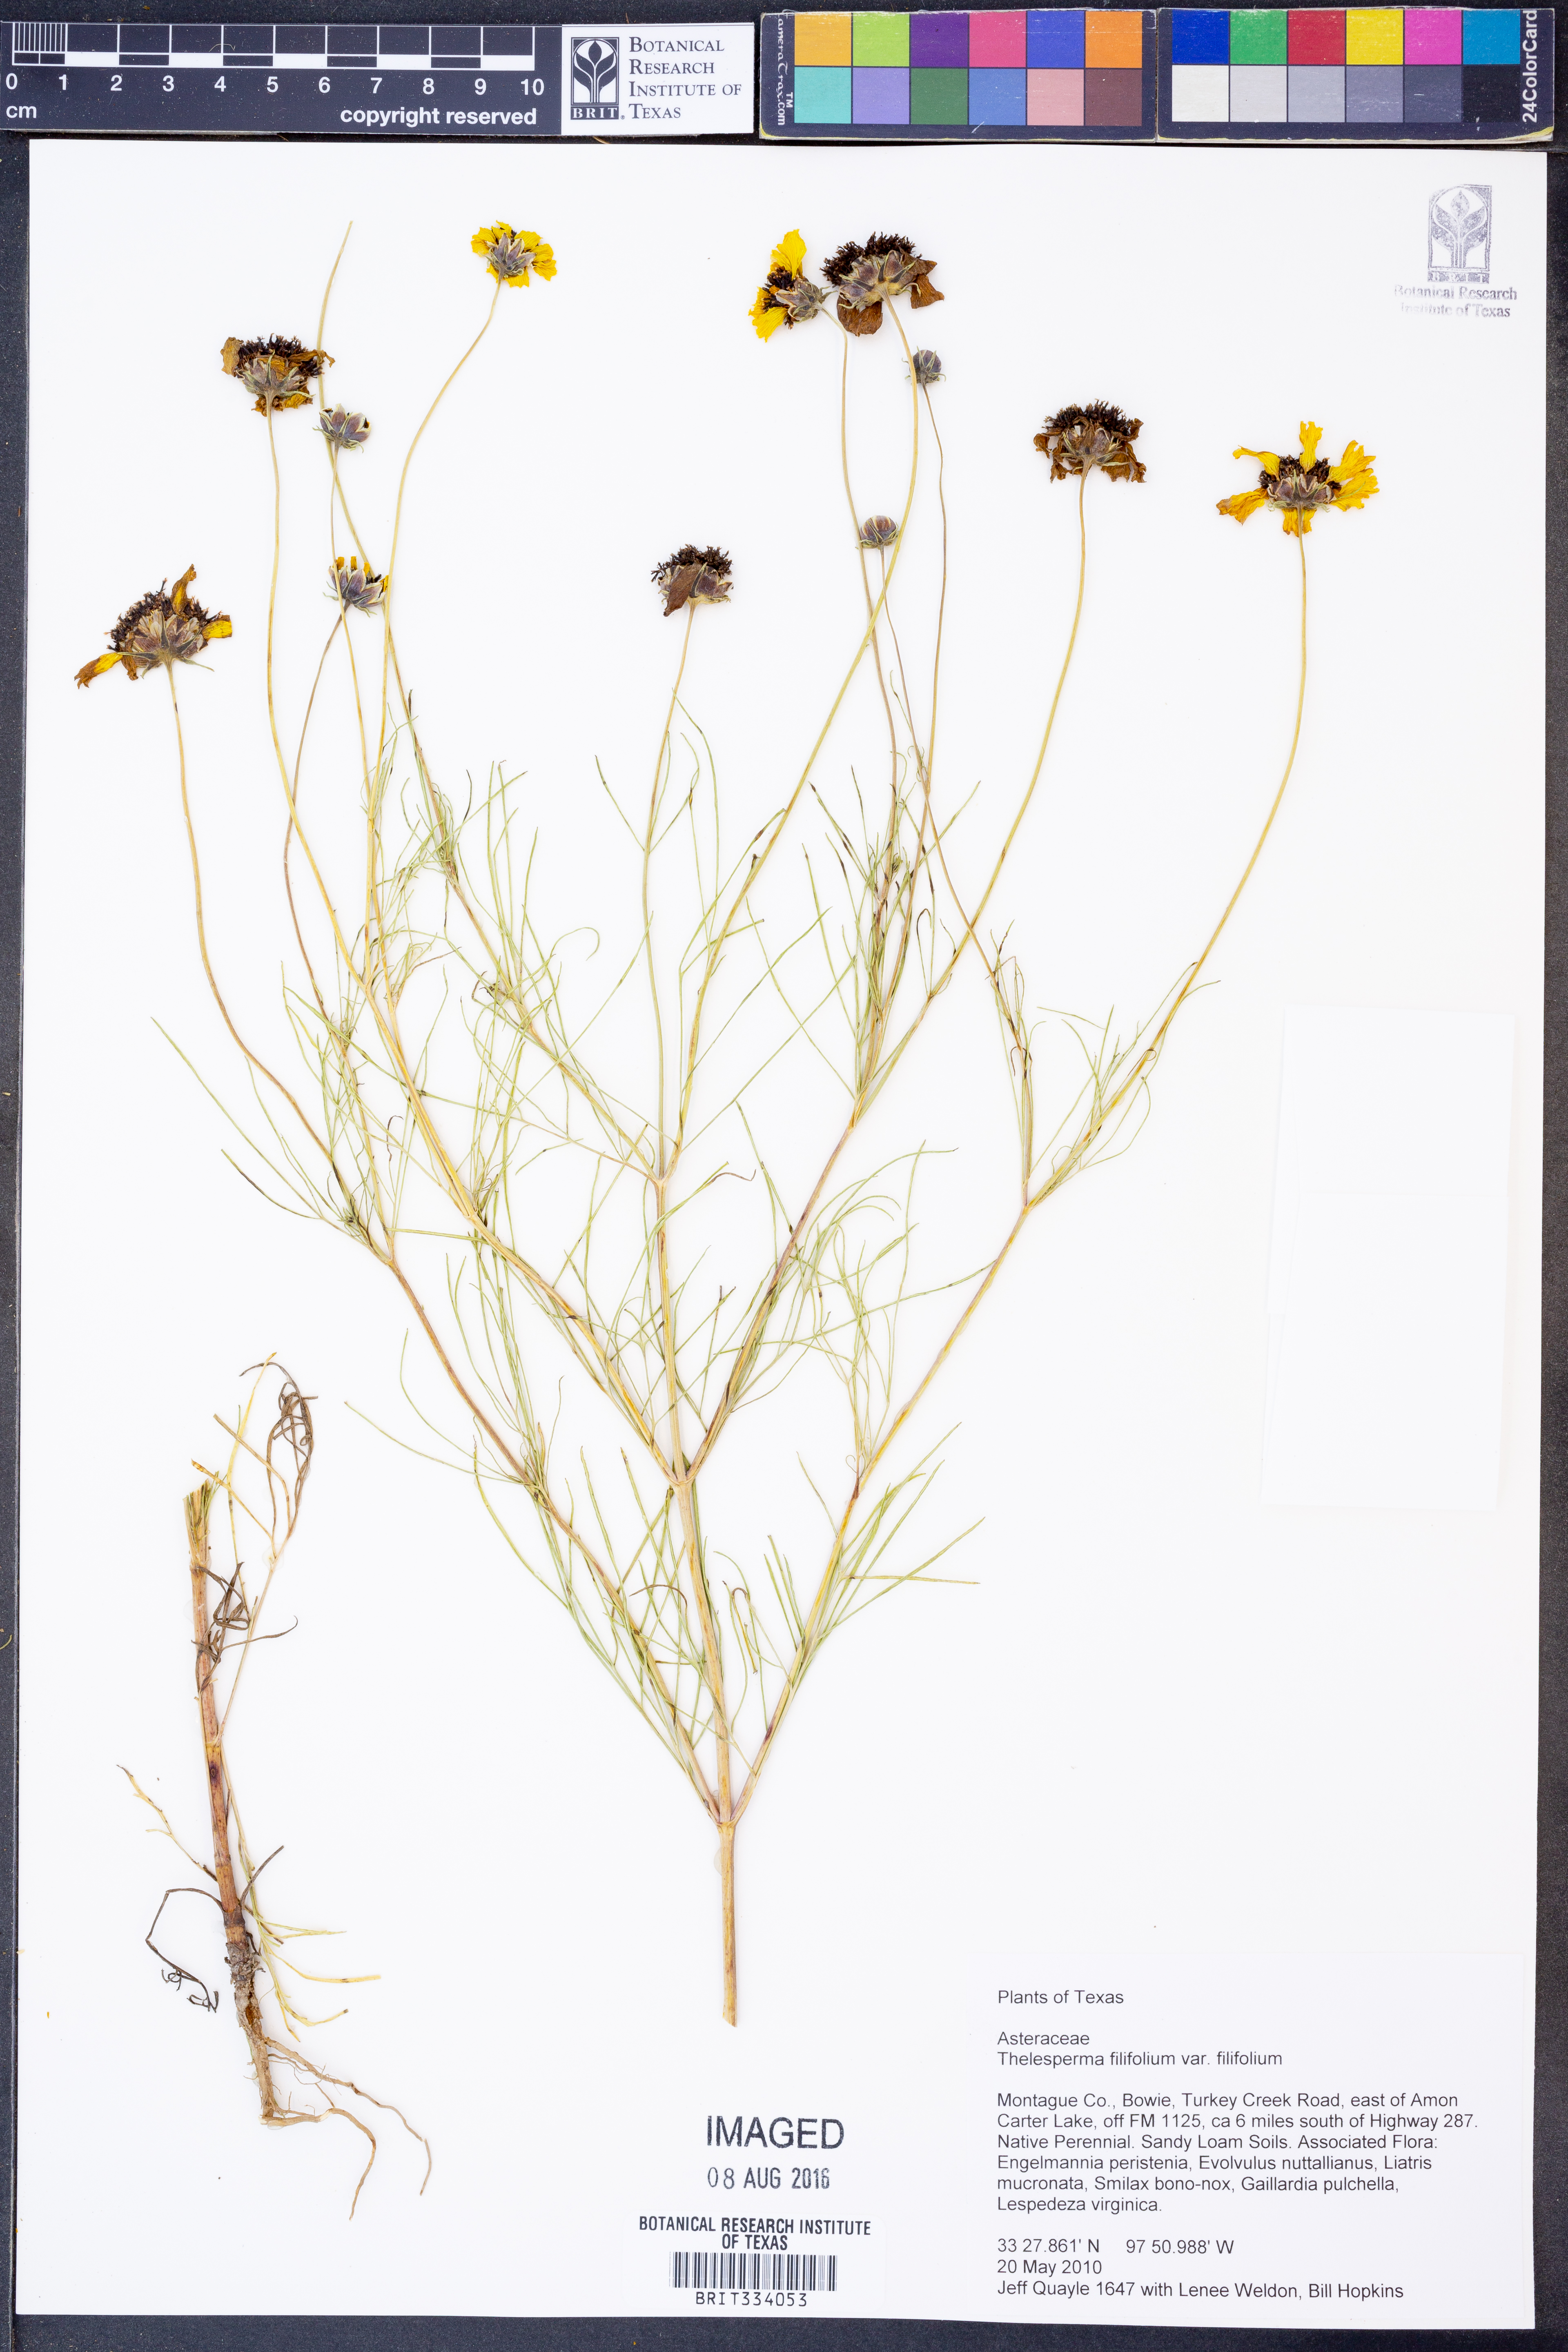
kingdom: Plantae
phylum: Tracheophyta
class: Magnoliopsida
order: Asterales
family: Asteraceae
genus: Thelesperma
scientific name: Thelesperma filifolium
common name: Stiff greenthread
